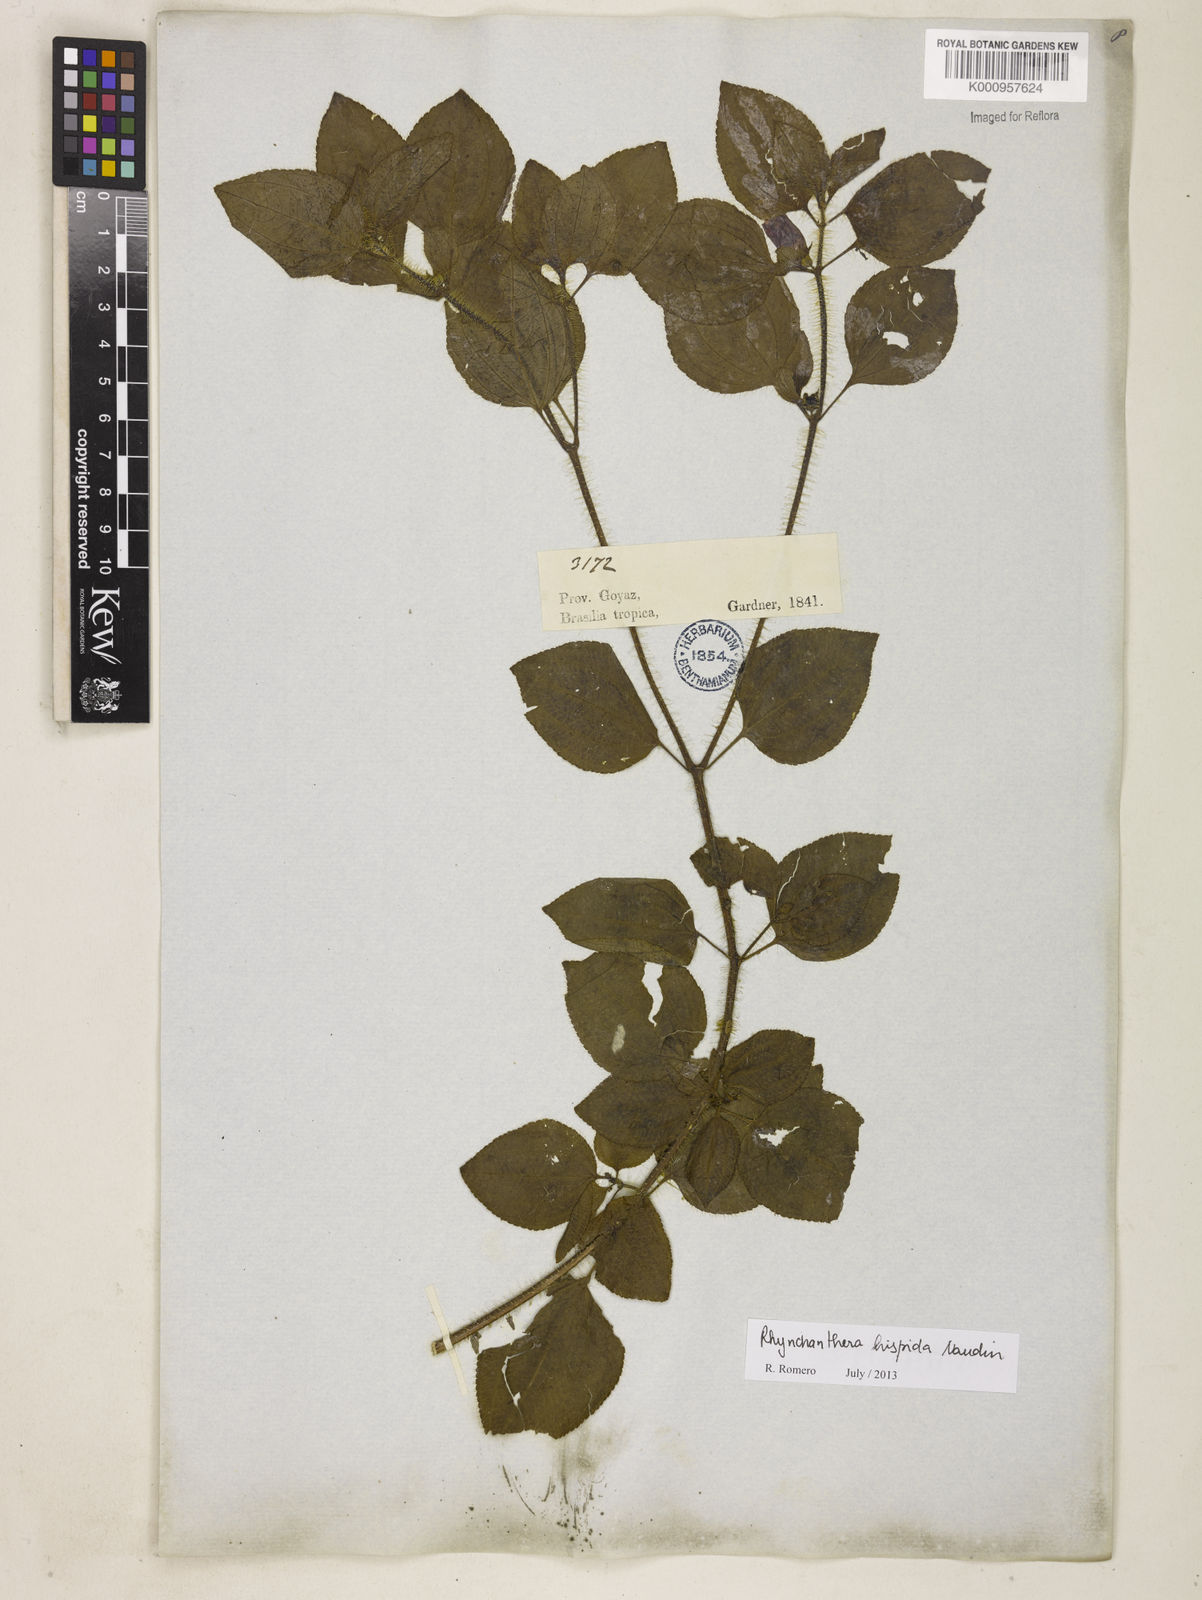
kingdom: Plantae
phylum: Tracheophyta
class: Magnoliopsida
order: Myrtales
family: Melastomataceae
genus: Rhynchanthera
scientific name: Rhynchanthera hispida
